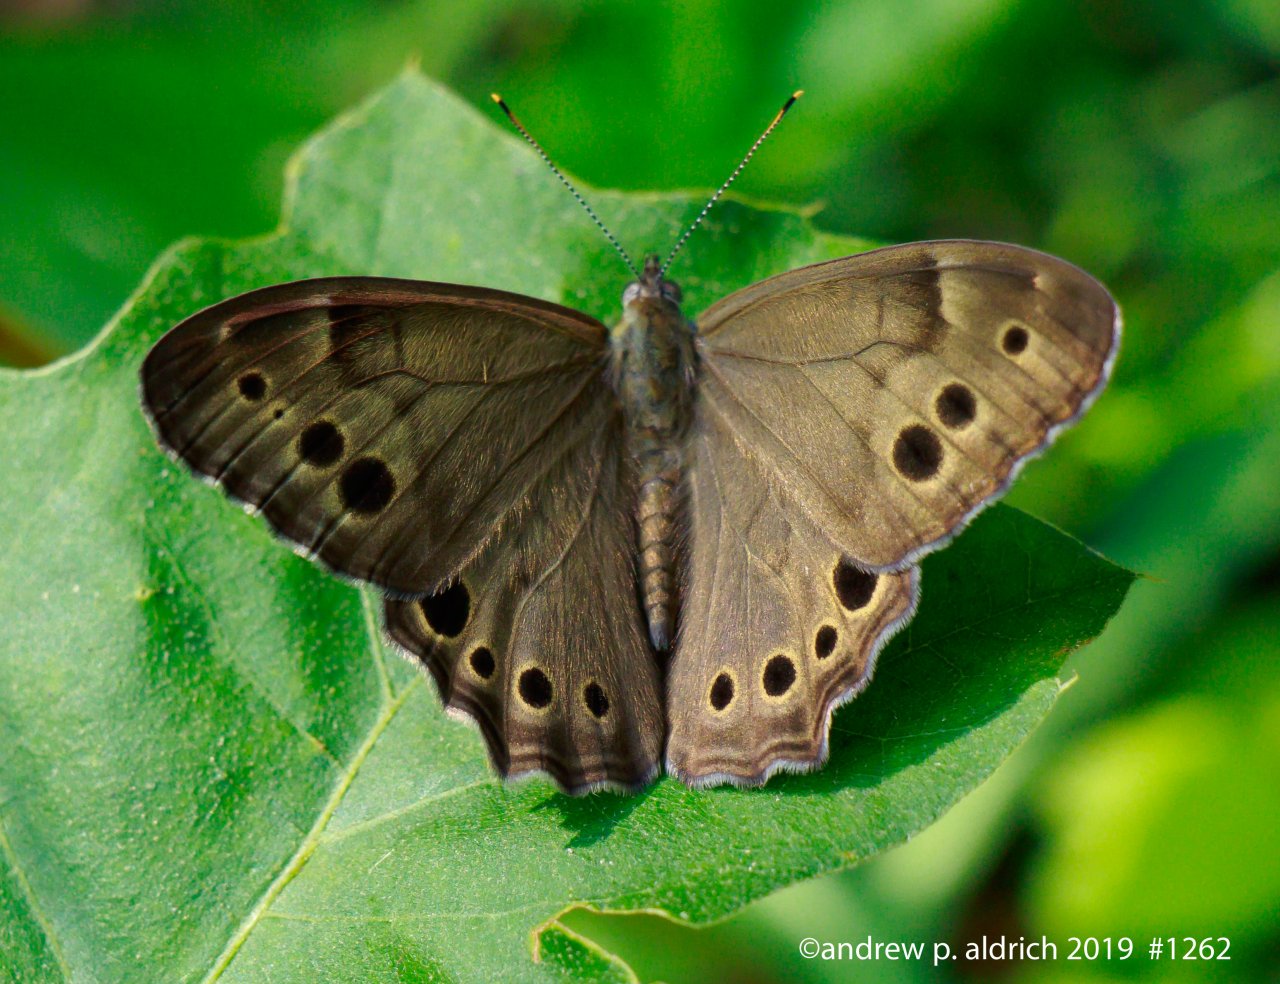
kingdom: Animalia
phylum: Arthropoda
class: Insecta
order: Lepidoptera
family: Nymphalidae
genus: Lethe
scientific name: Lethe anthedon
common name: Northern Pearly-Eye
